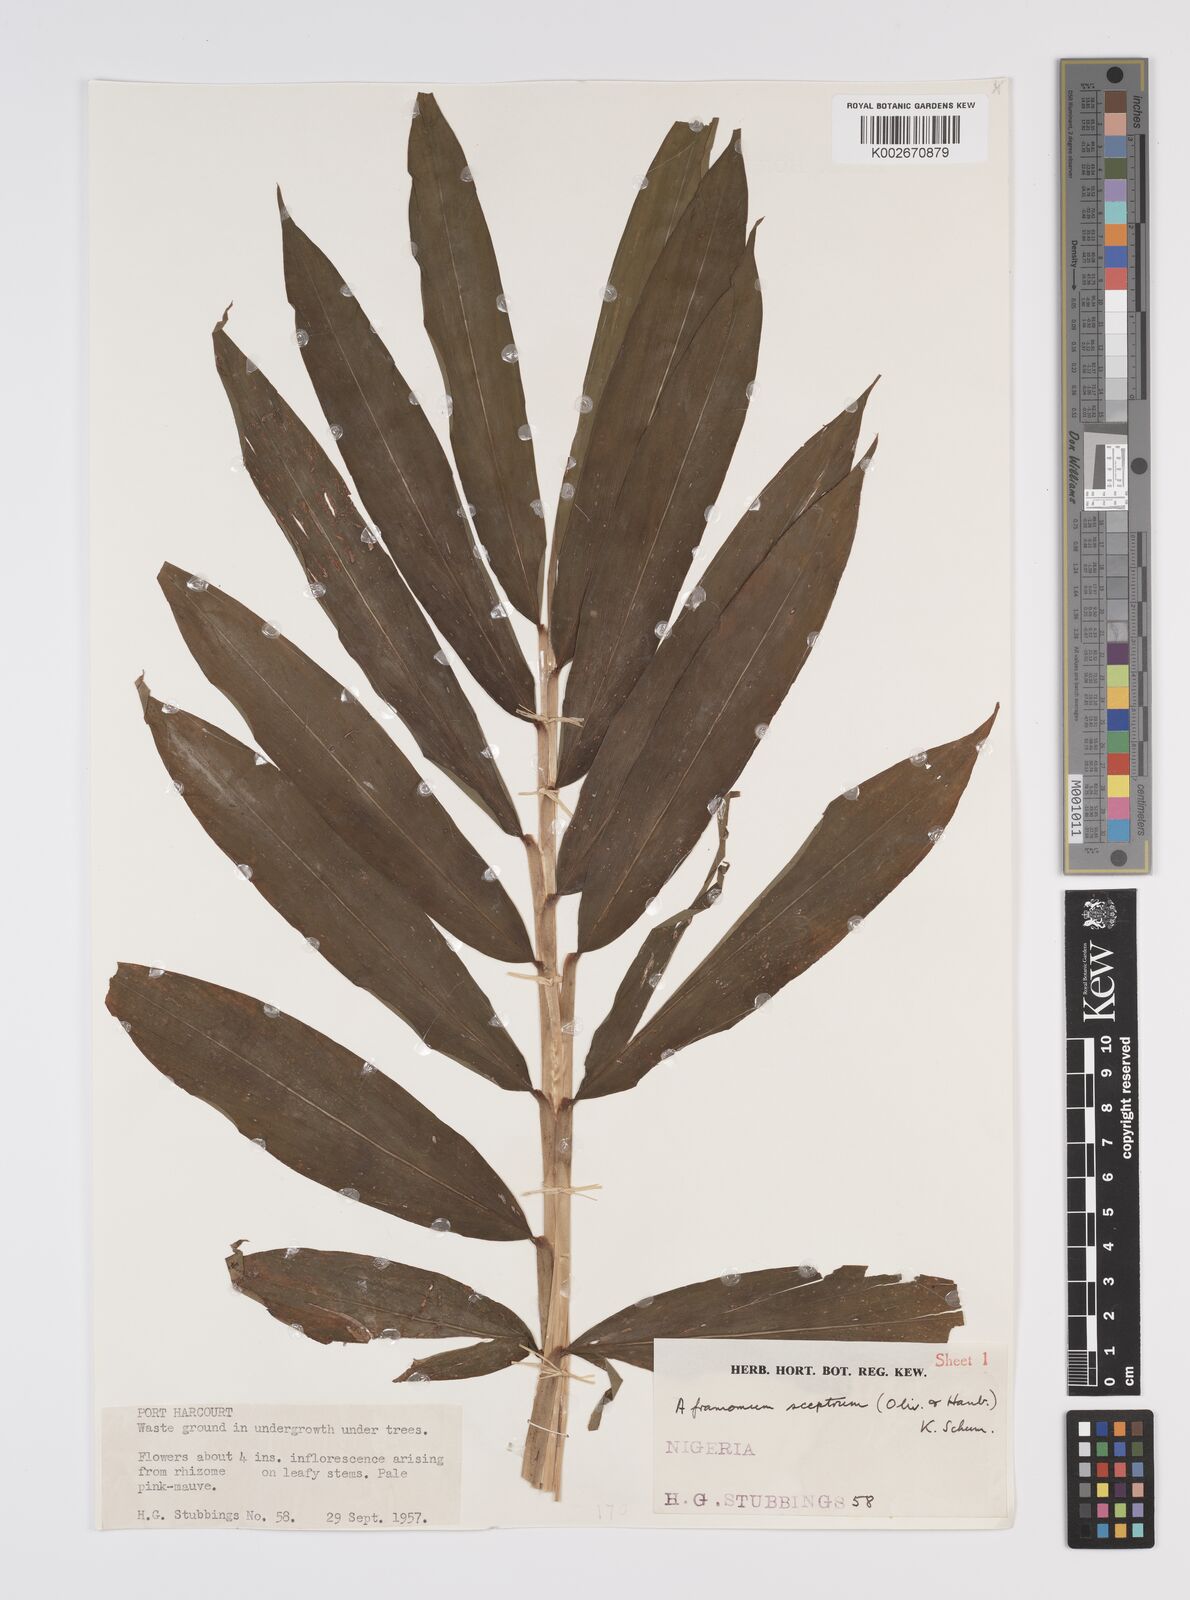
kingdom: Plantae
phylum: Tracheophyta
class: Liliopsida
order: Zingiberales
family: Zingiberaceae
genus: Aframomum
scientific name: Aframomum cereum
